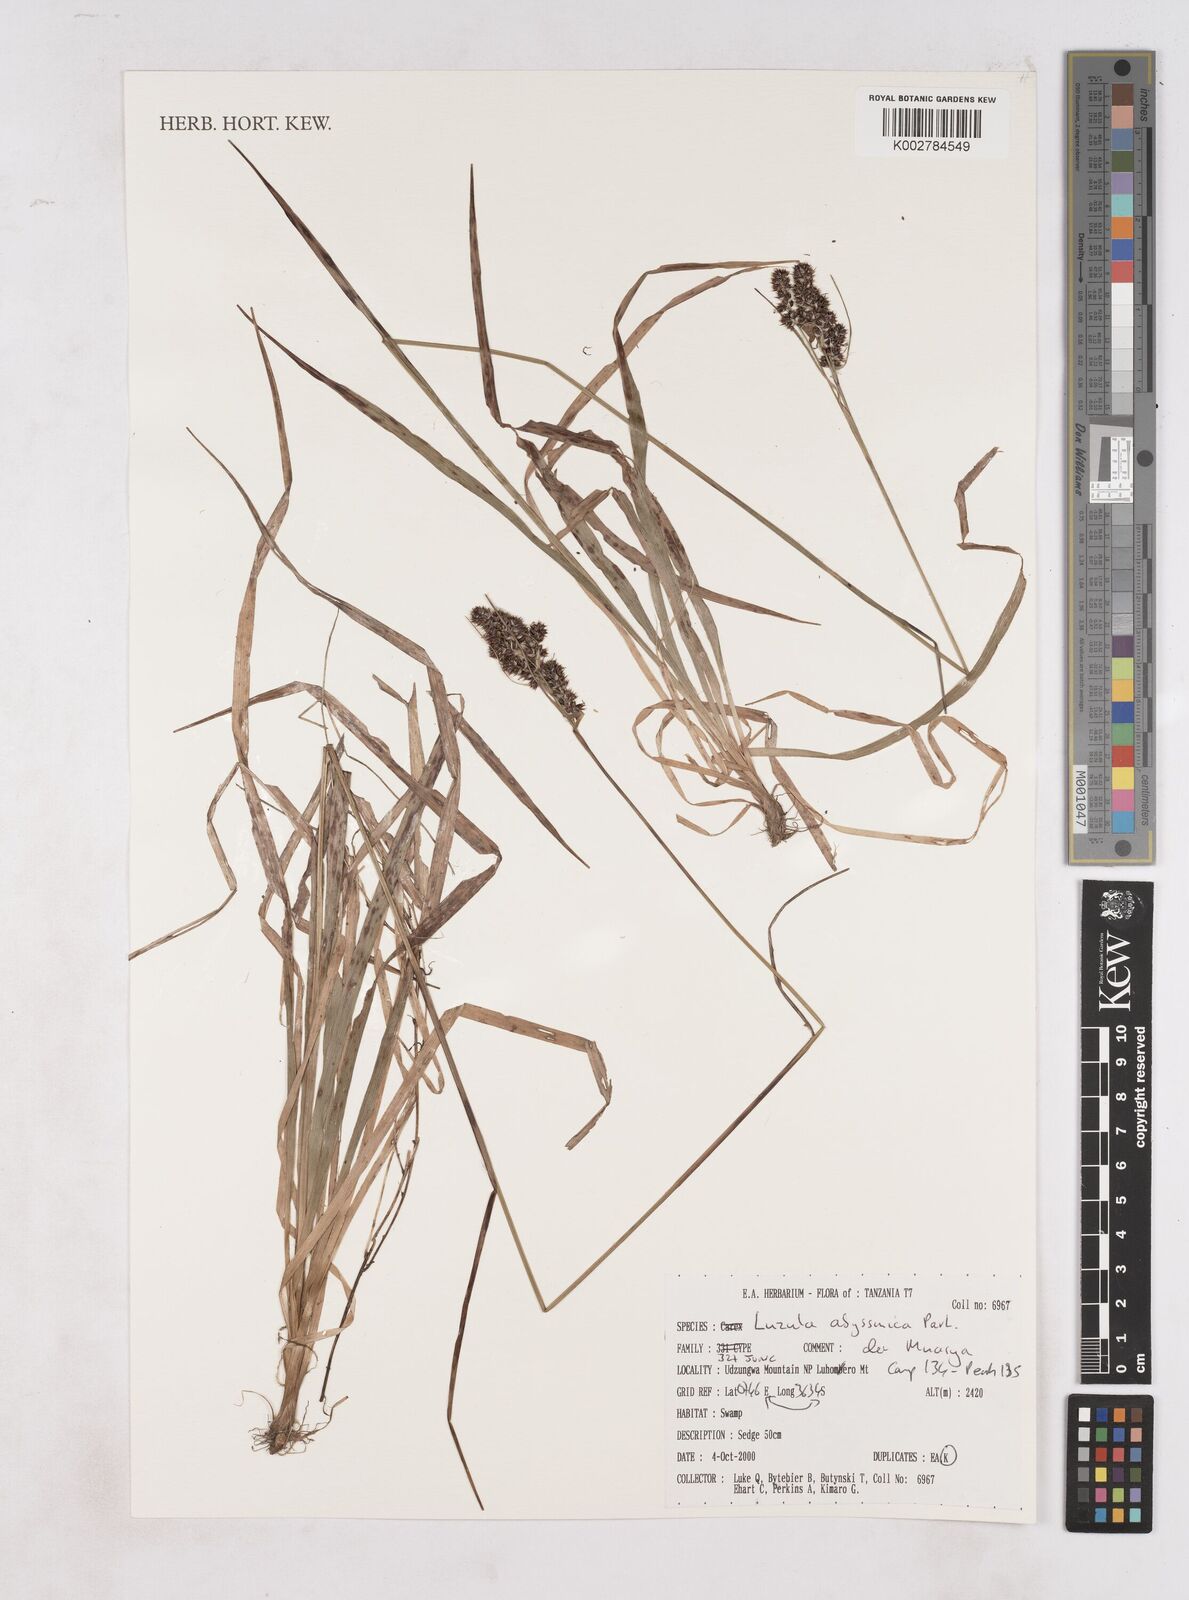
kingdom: Plantae
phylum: Tracheophyta
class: Liliopsida
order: Poales
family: Juncaceae
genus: Luzula
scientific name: Luzula abyssinica
